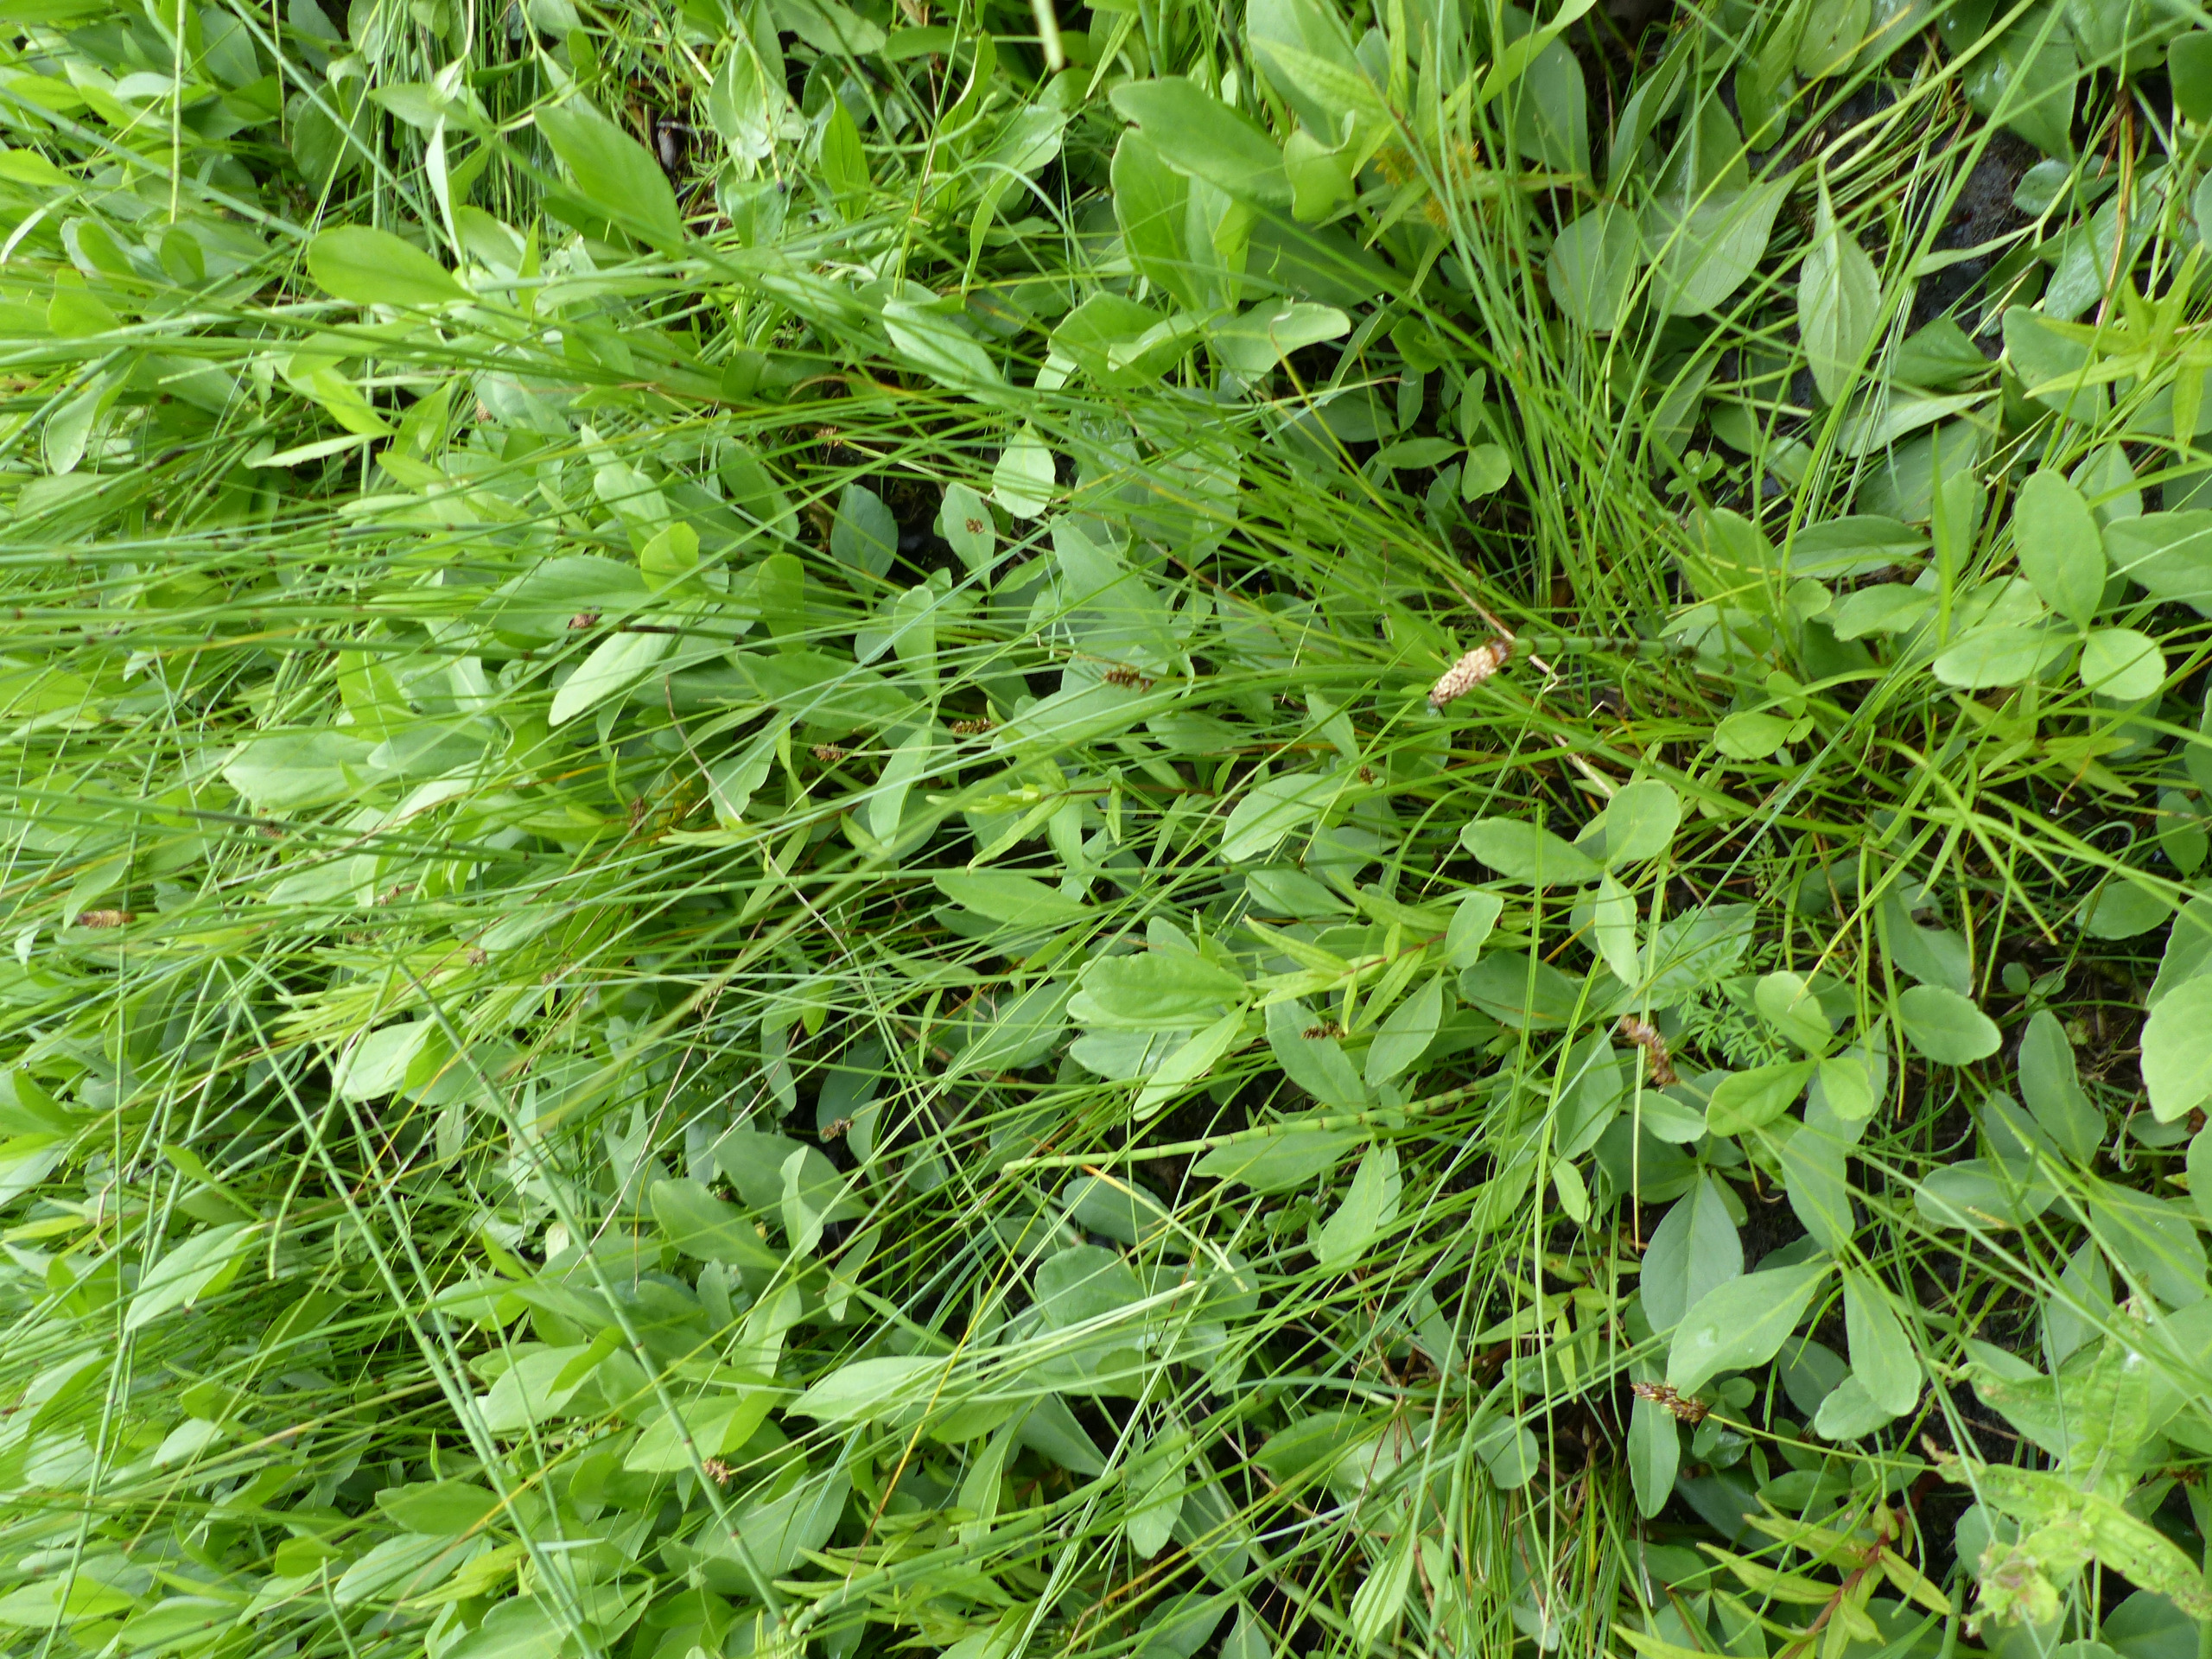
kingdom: Plantae
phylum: Tracheophyta
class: Liliopsida
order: Poales
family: Cyperaceae
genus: Carex
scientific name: Carex diandra
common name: Trindstænglet star
